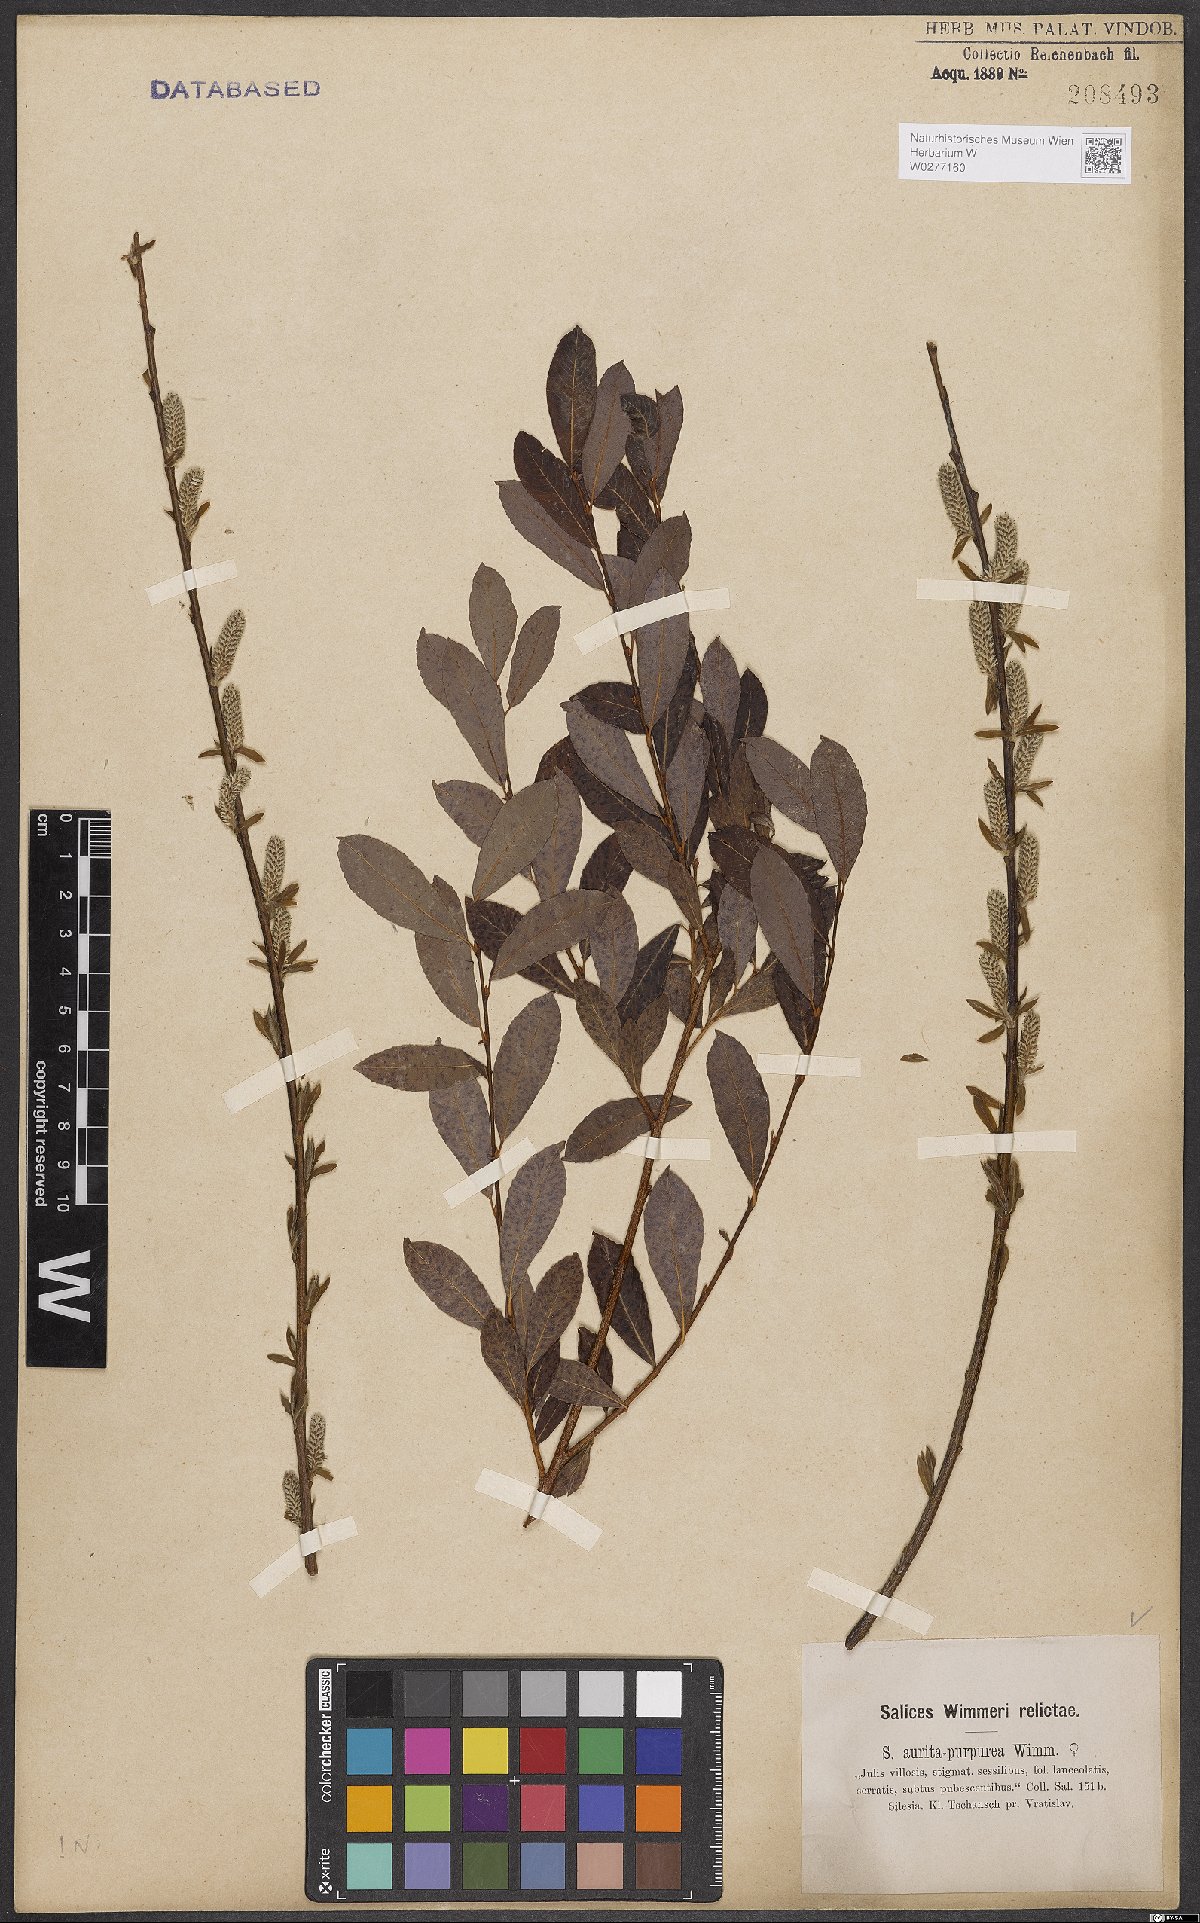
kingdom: Plantae
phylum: Tracheophyta
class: Magnoliopsida
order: Malpighiales
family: Salicaceae
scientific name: Salicaceae
